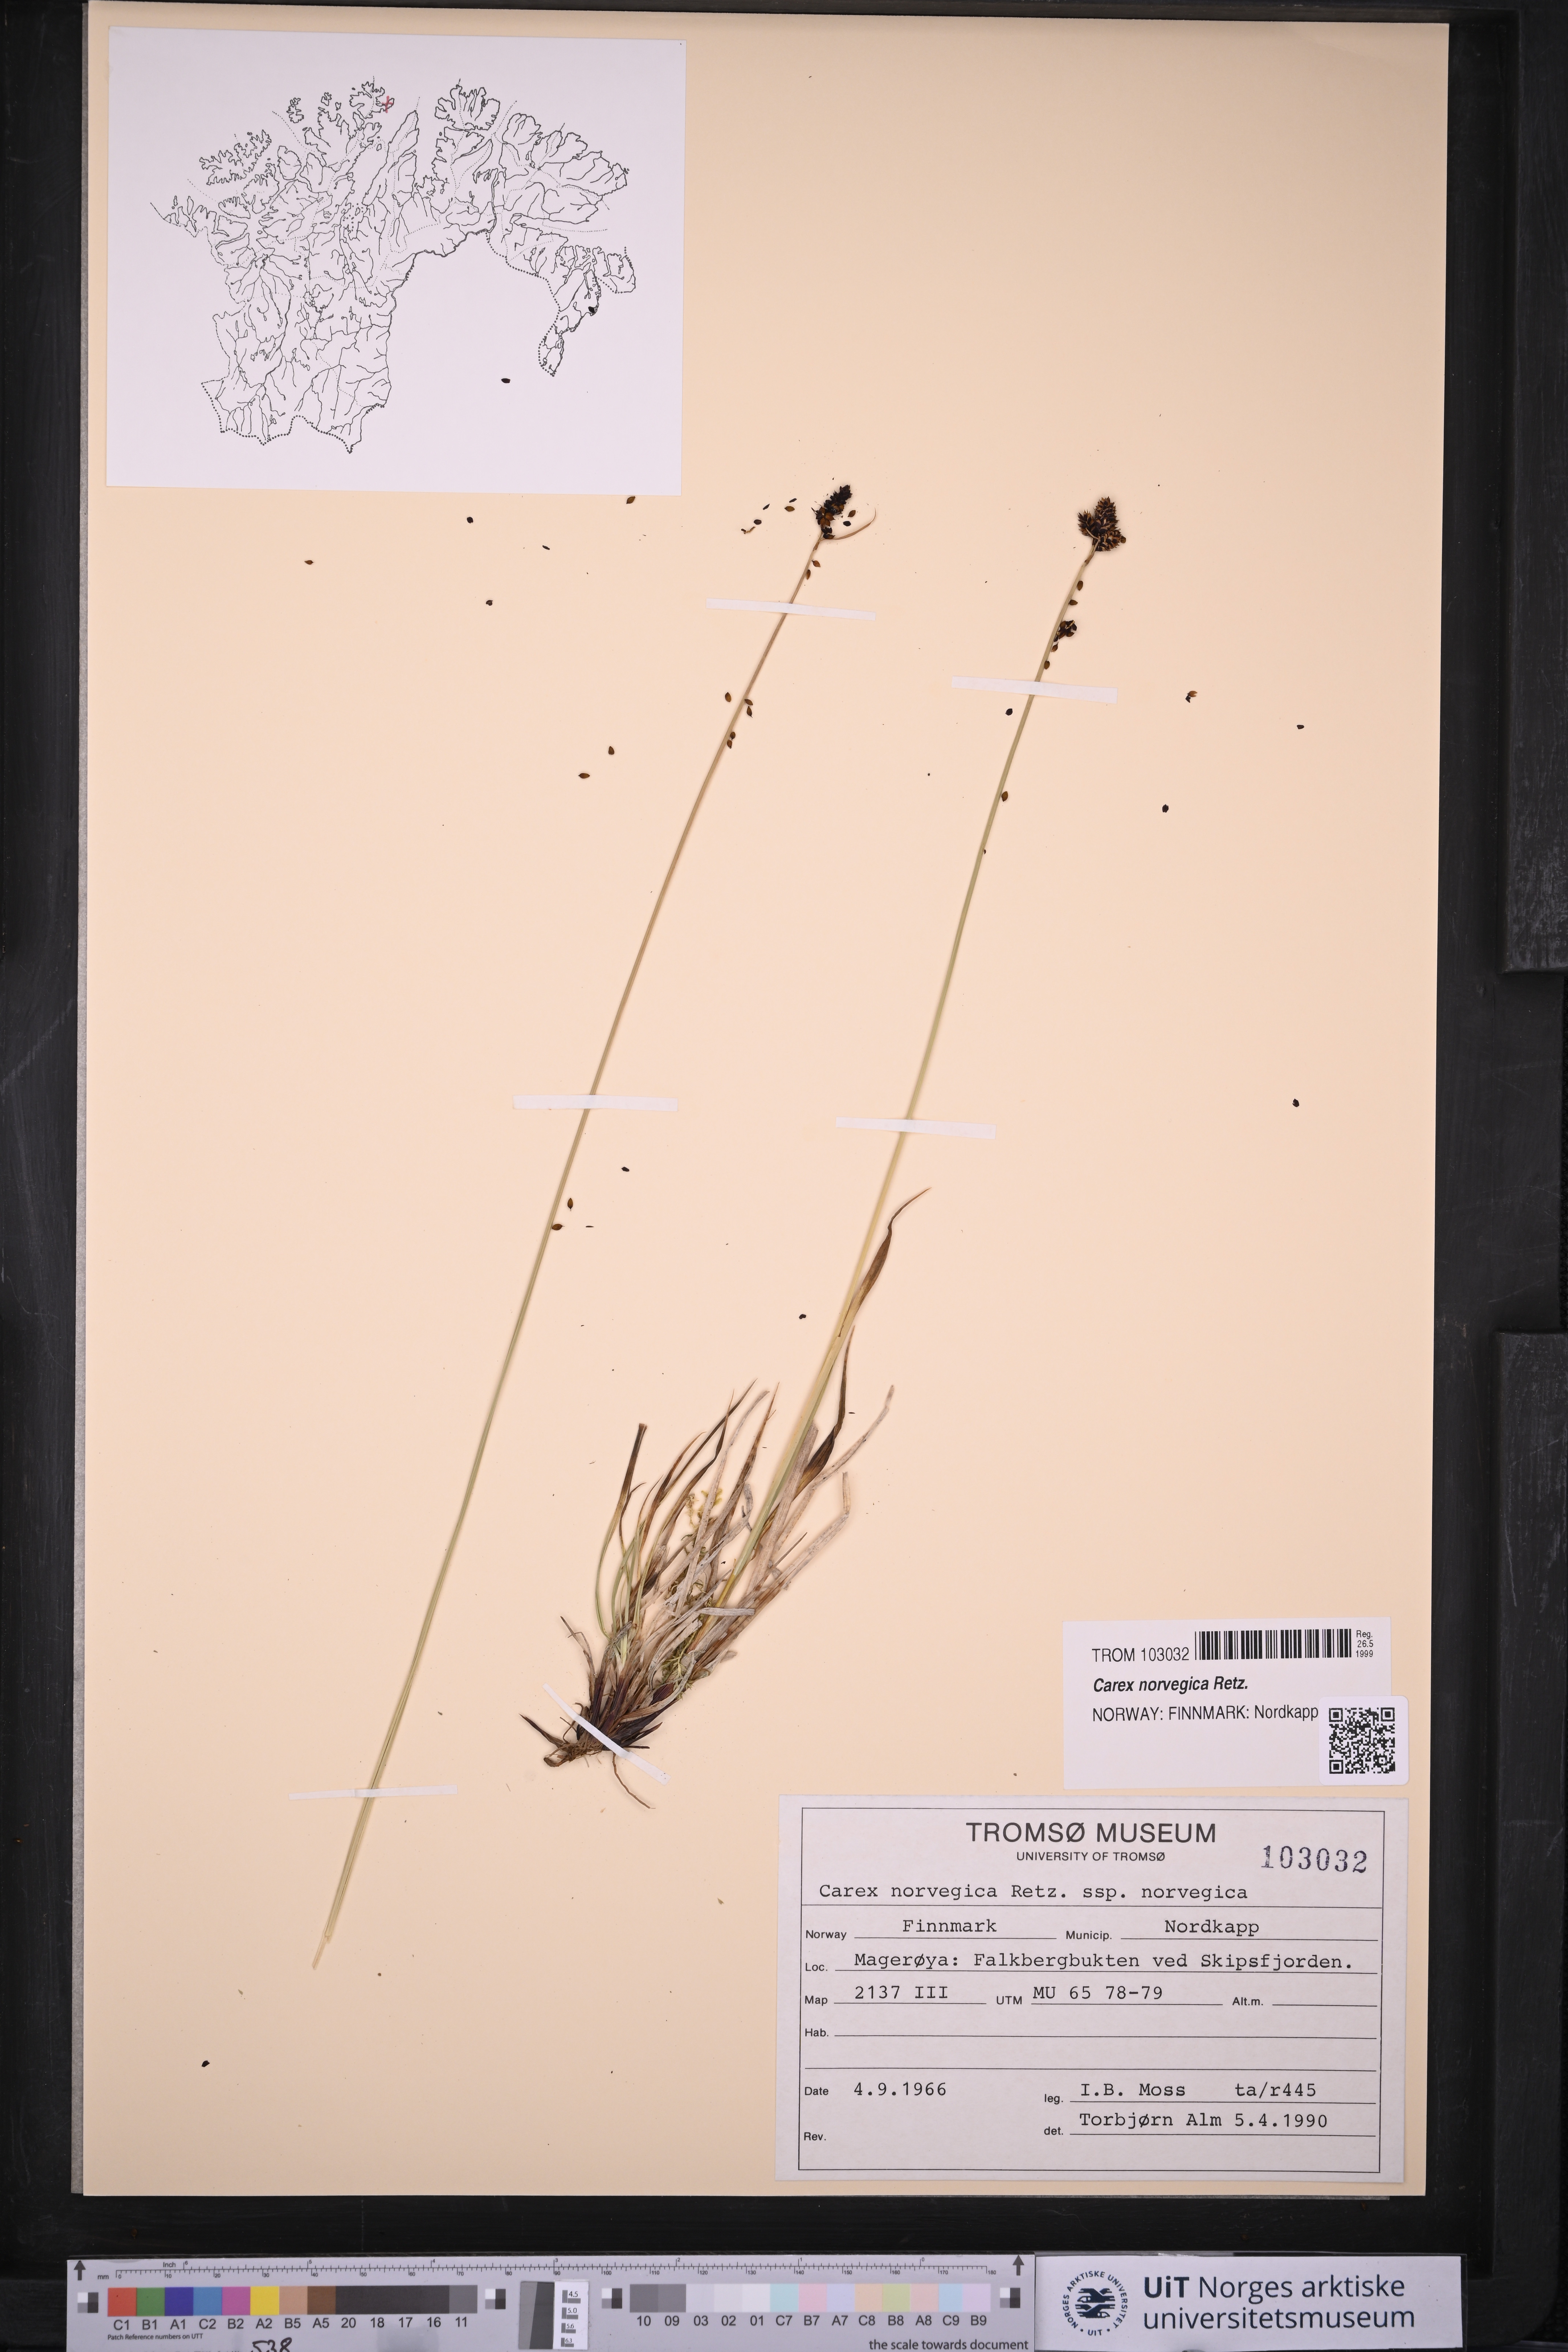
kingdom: Plantae
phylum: Tracheophyta
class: Liliopsida
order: Poales
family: Cyperaceae
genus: Carex
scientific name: Carex norvegica
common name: Close-headed alpine-sedge
